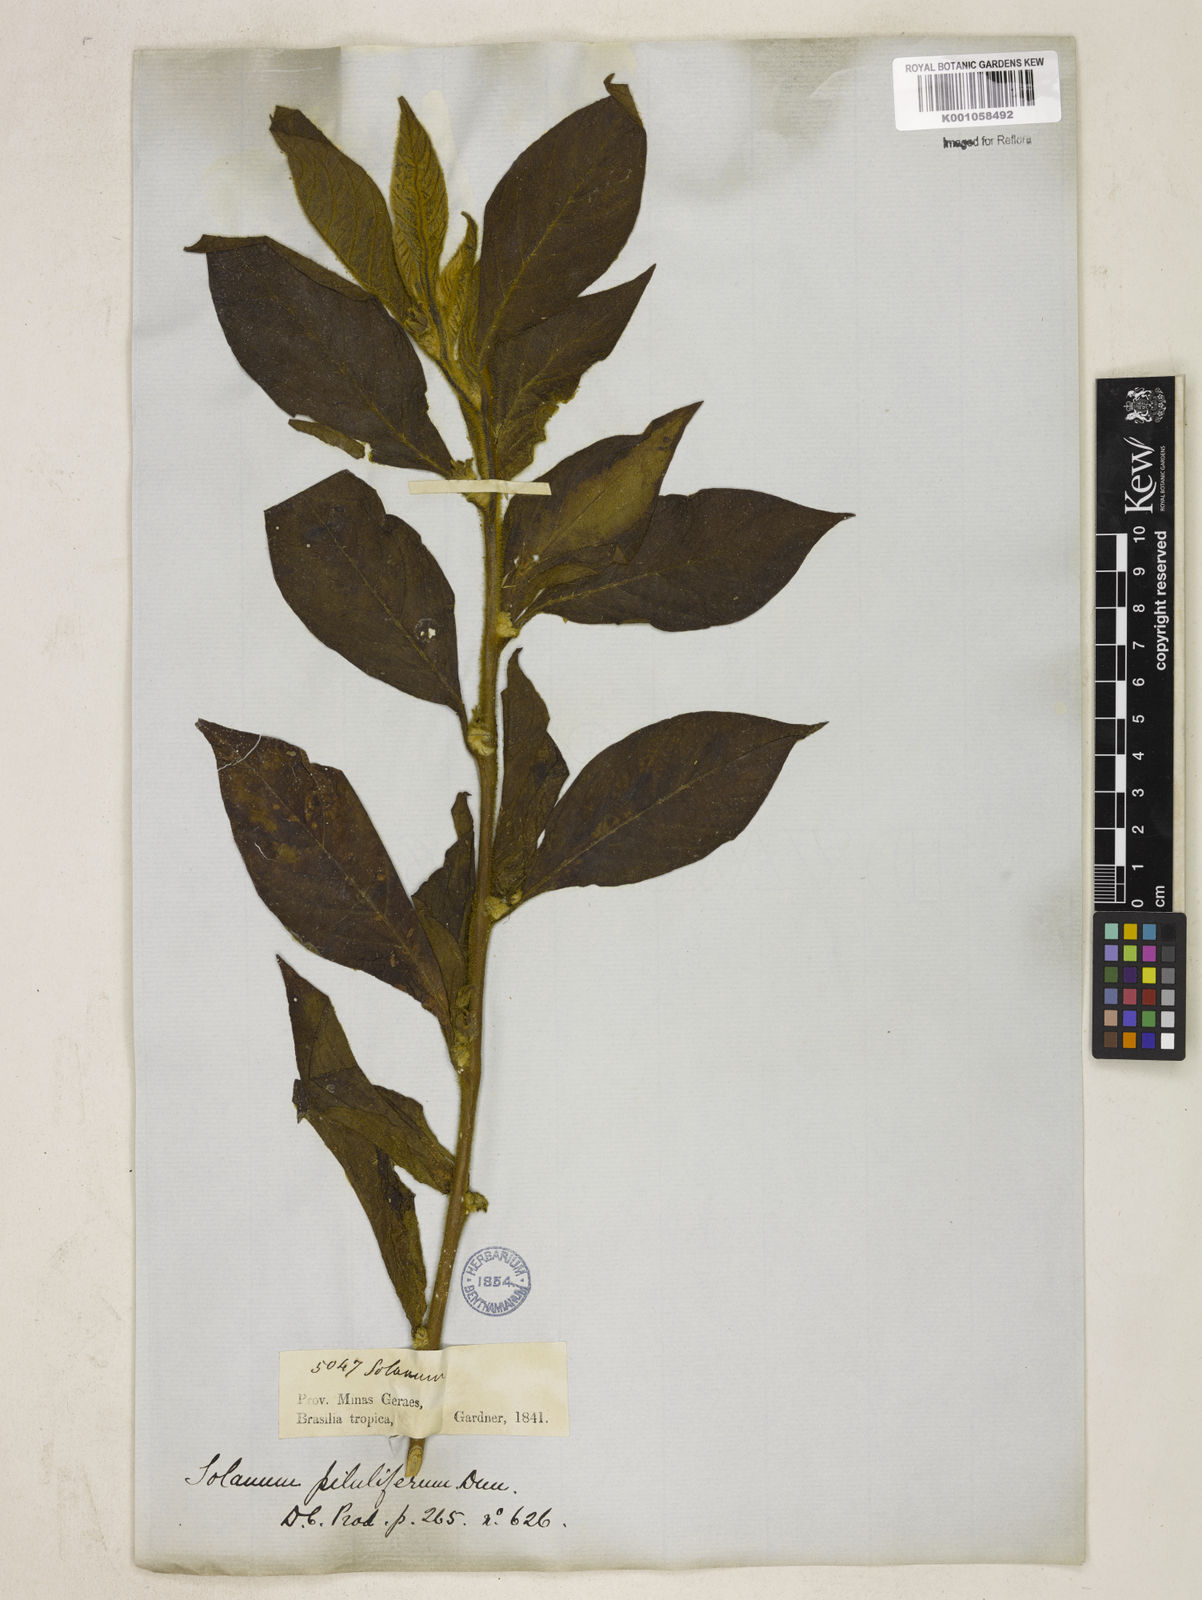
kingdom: Plantae
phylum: Tracheophyta
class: Magnoliopsida
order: Solanales
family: Solanaceae
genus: Solanum
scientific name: Solanum piluliferum
